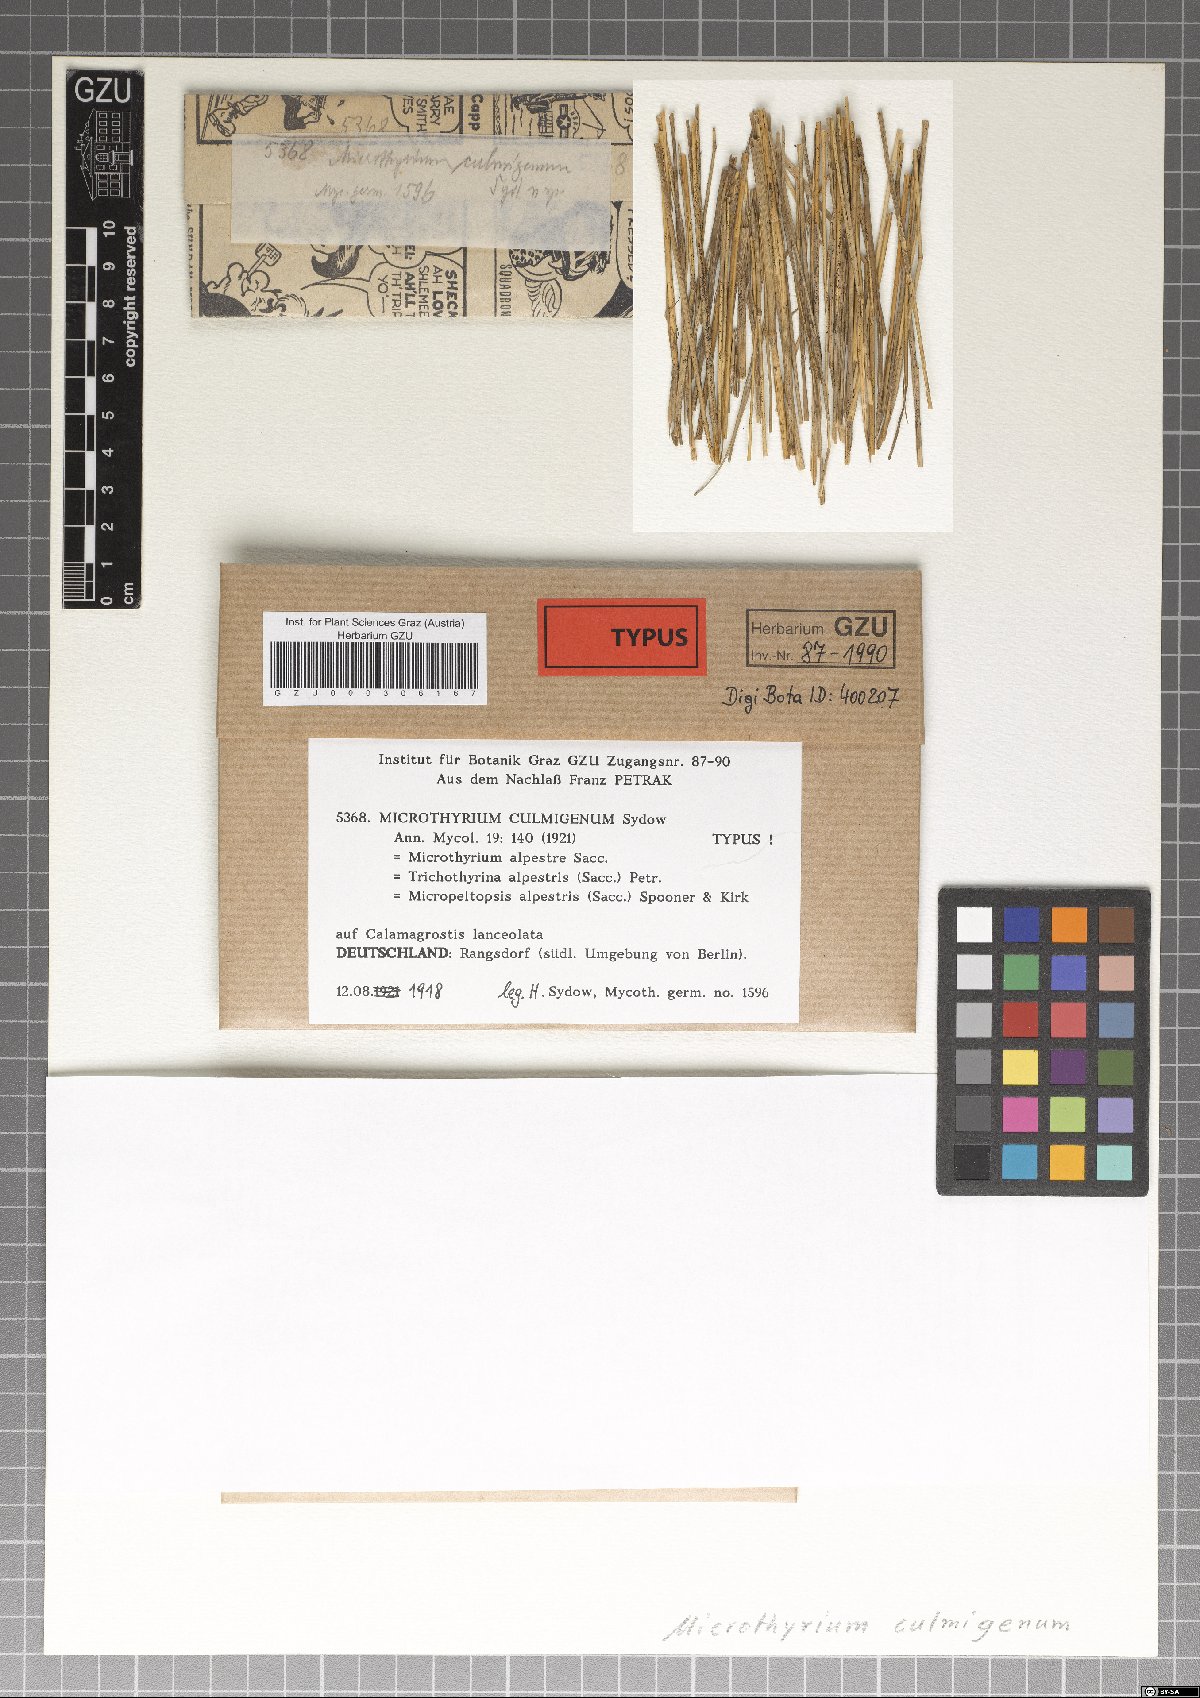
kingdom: Fungi
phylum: Ascomycota
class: Dothideomycetes
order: Microthyriales
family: Microthyriaceae
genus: Lichenopeltella
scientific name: Lichenopeltella alpestris
